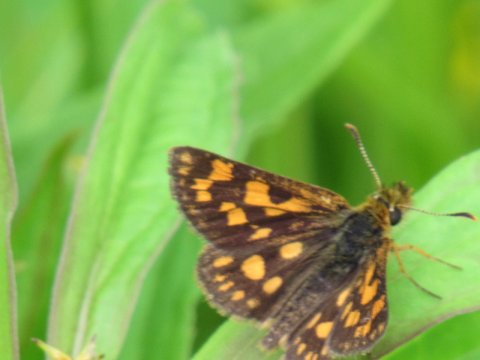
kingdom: Animalia
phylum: Arthropoda
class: Insecta
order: Lepidoptera
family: Hesperiidae
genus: Carterocephalus
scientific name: Carterocephalus palaemon
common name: Chequered Skipper
